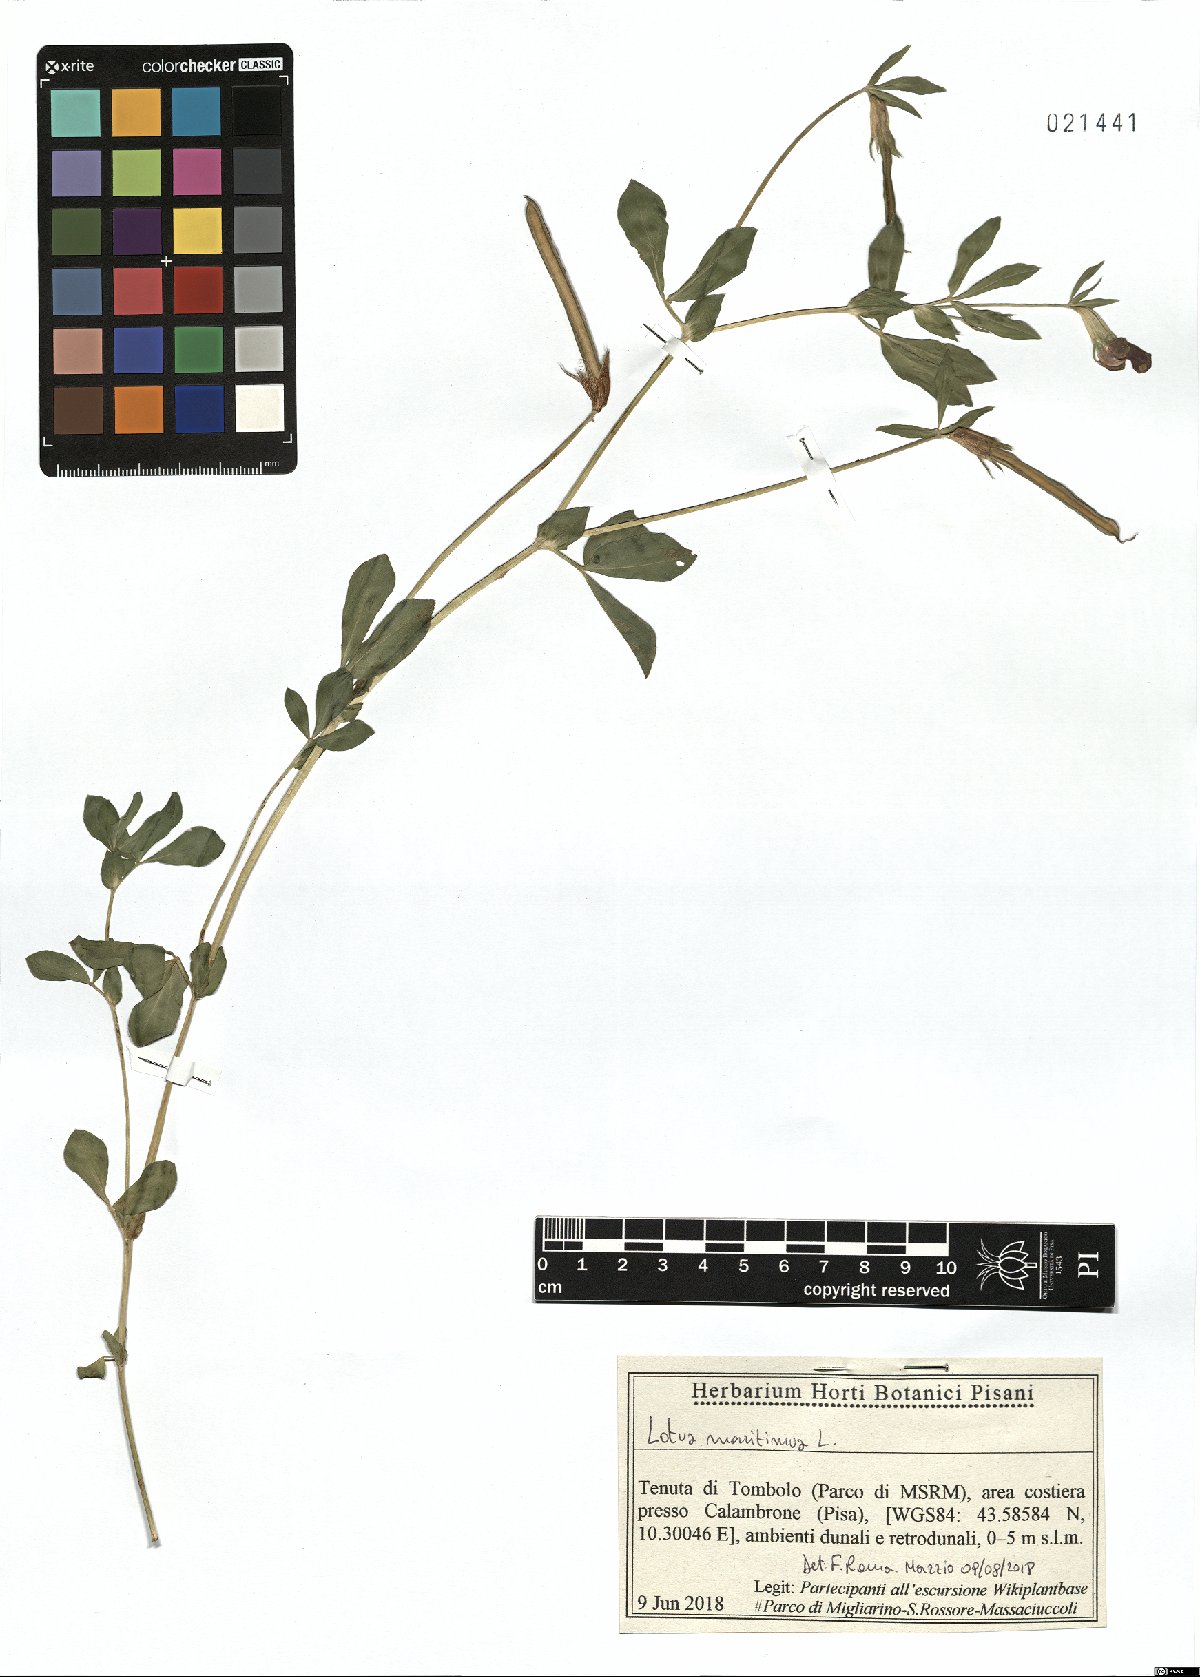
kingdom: Plantae
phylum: Tracheophyta
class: Magnoliopsida
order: Fabales
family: Fabaceae
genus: Lotus
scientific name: Lotus maritimus
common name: Dragon's-teeth
